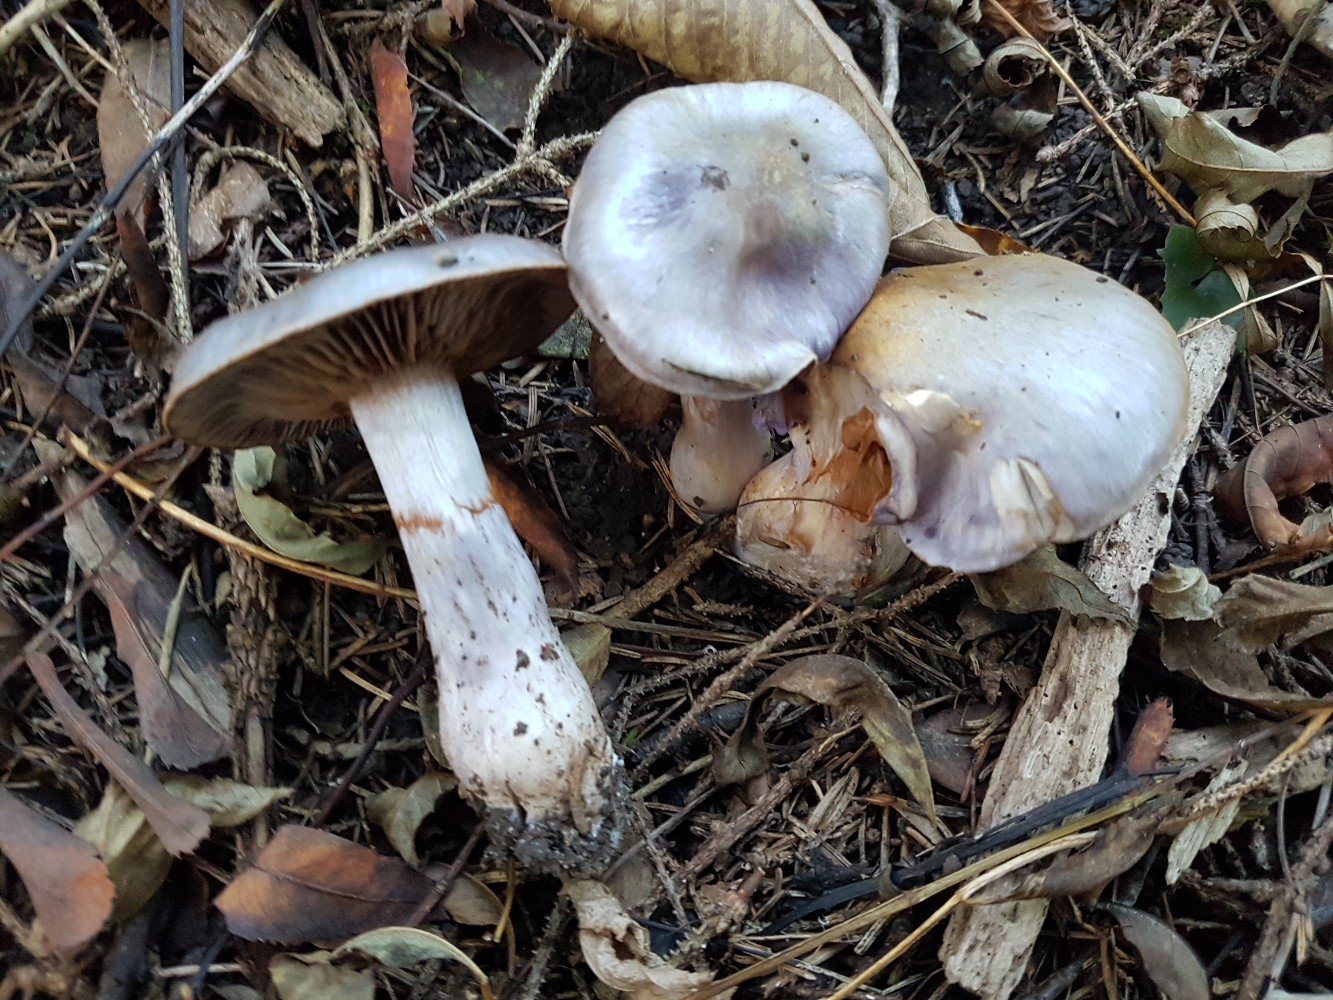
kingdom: Fungi
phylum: Basidiomycota
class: Agaricomycetes
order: Agaricales
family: Cortinariaceae
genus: Cortinarius
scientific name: Cortinarius salor
